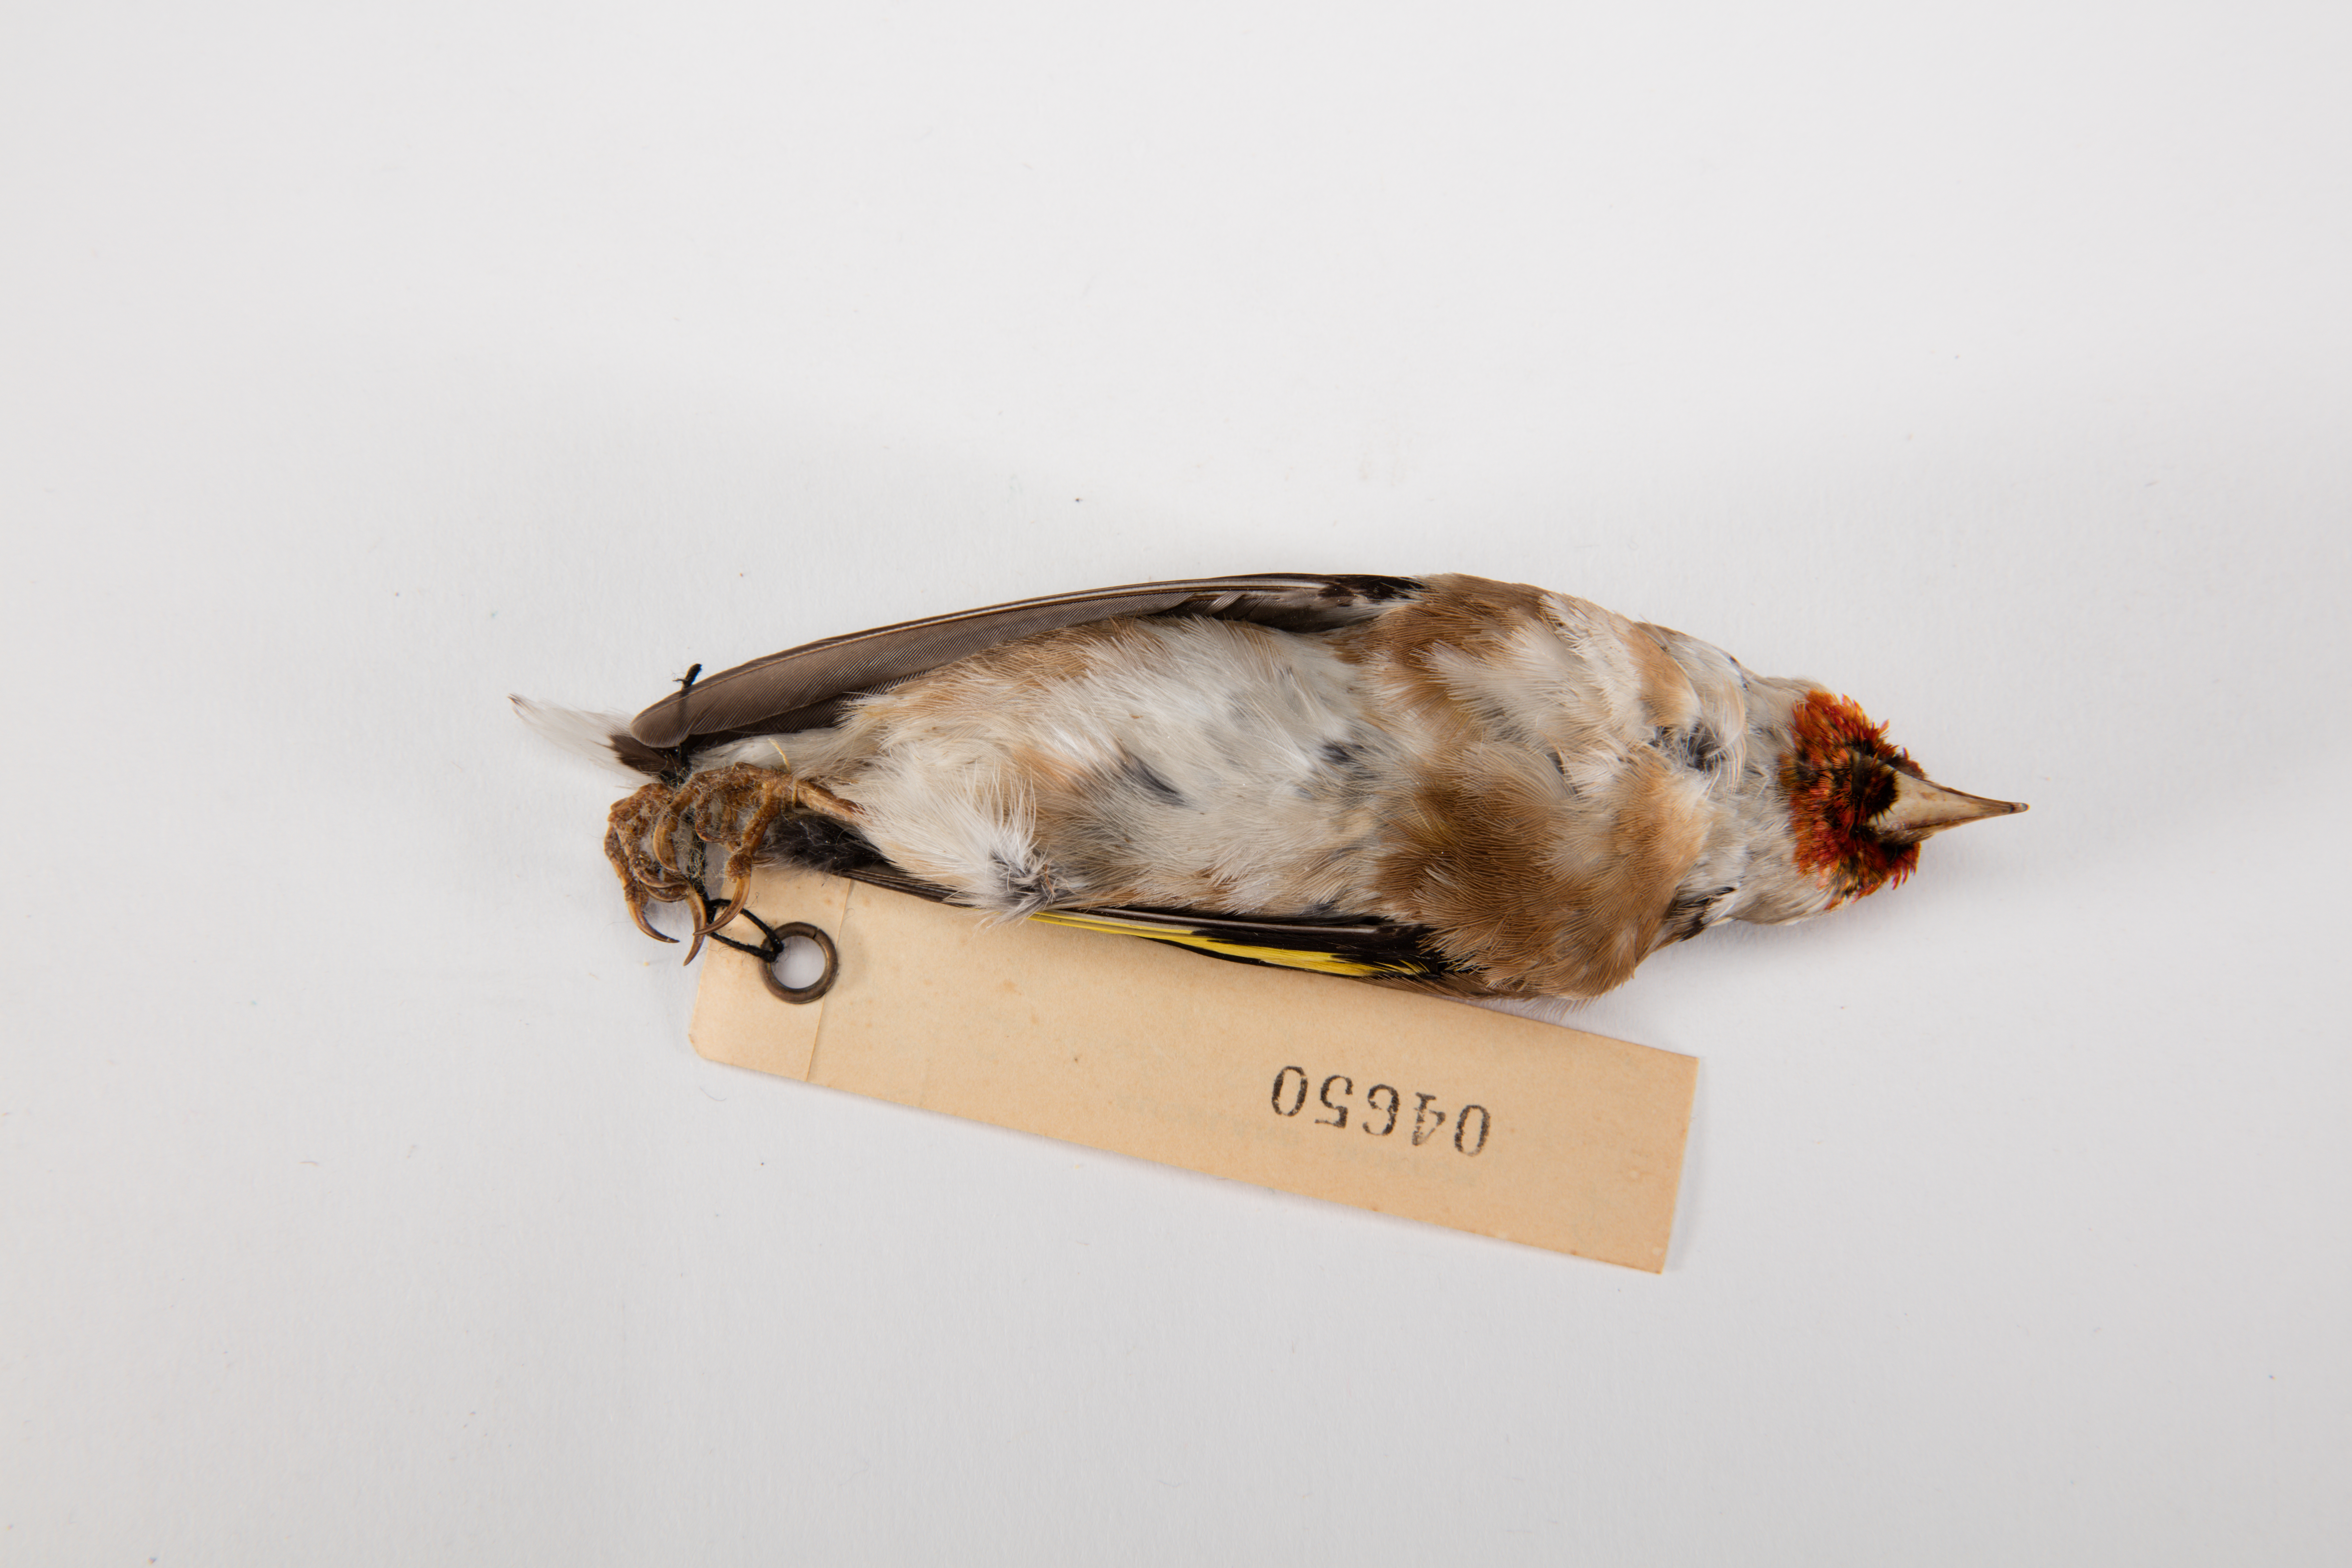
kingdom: Animalia
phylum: Chordata
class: Aves
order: Passeriformes
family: Fringillidae
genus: Carduelis
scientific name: Carduelis carduelis
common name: European goldfinch
